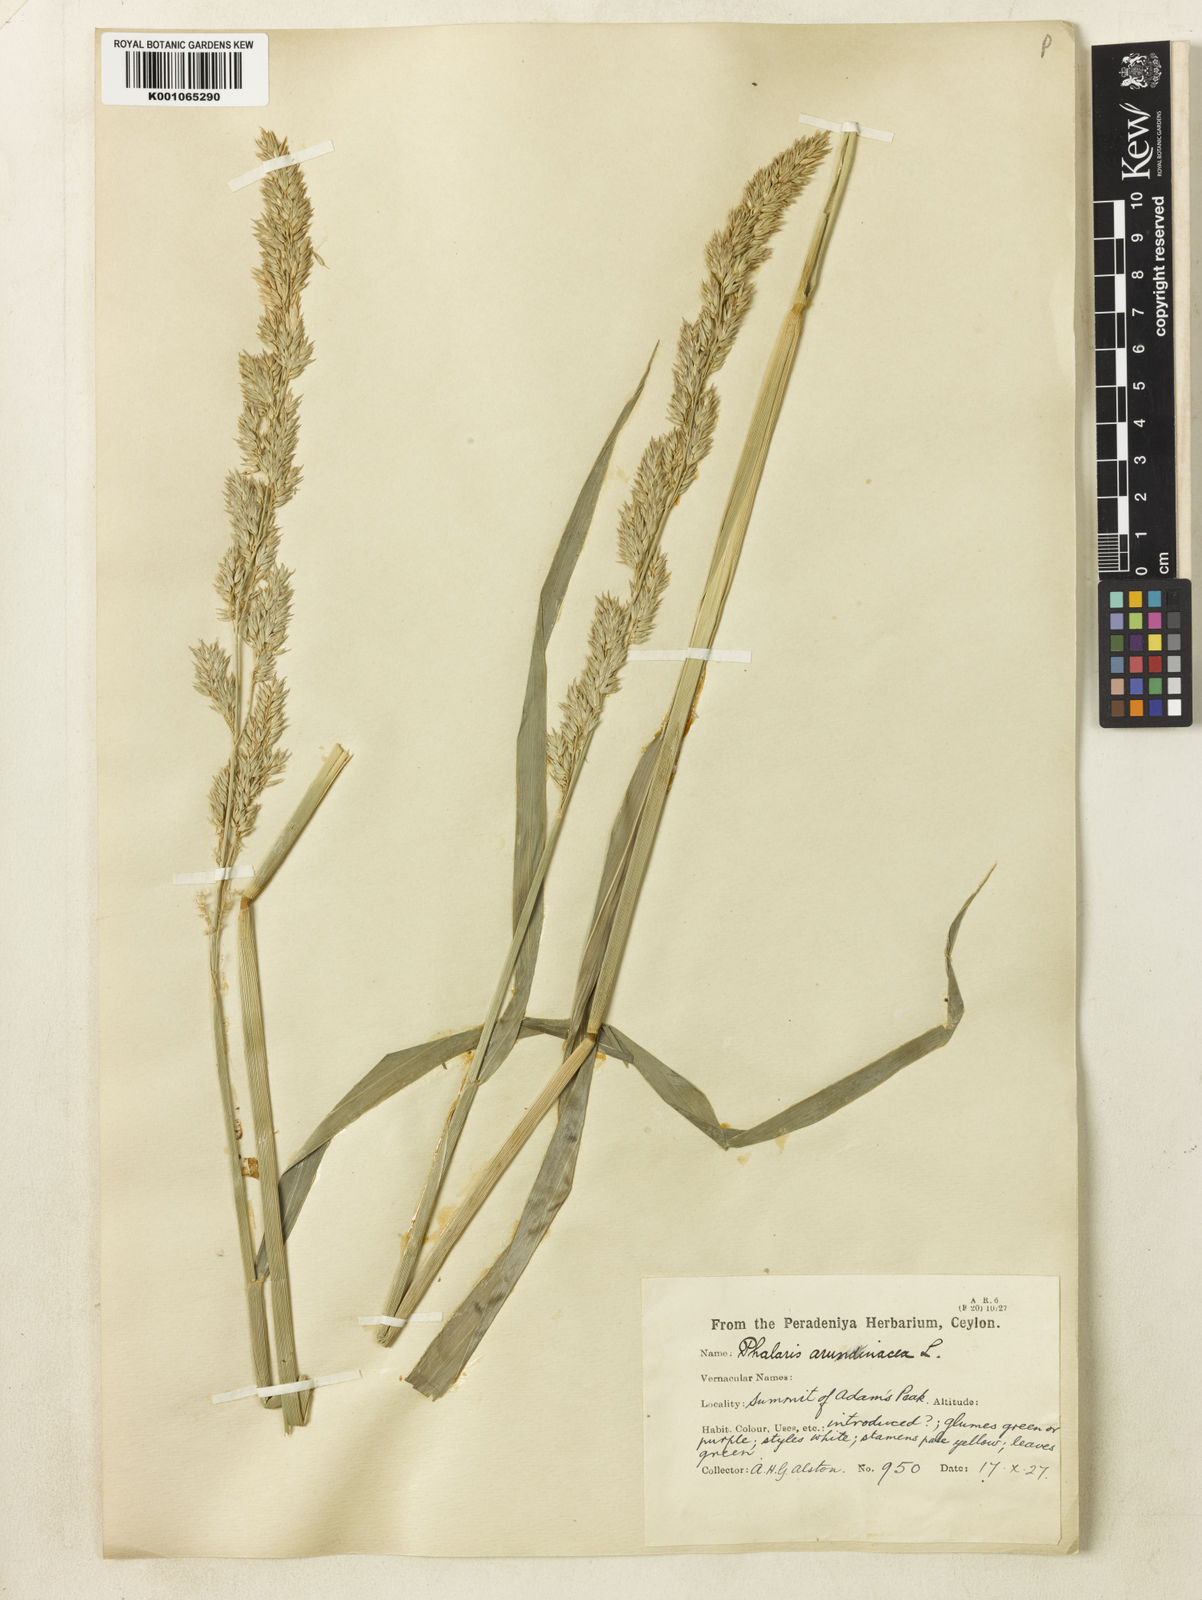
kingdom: Plantae
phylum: Tracheophyta
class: Liliopsida
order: Poales
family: Poaceae
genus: Phalaris
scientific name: Phalaris arundinacea
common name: Reed canary-grass
